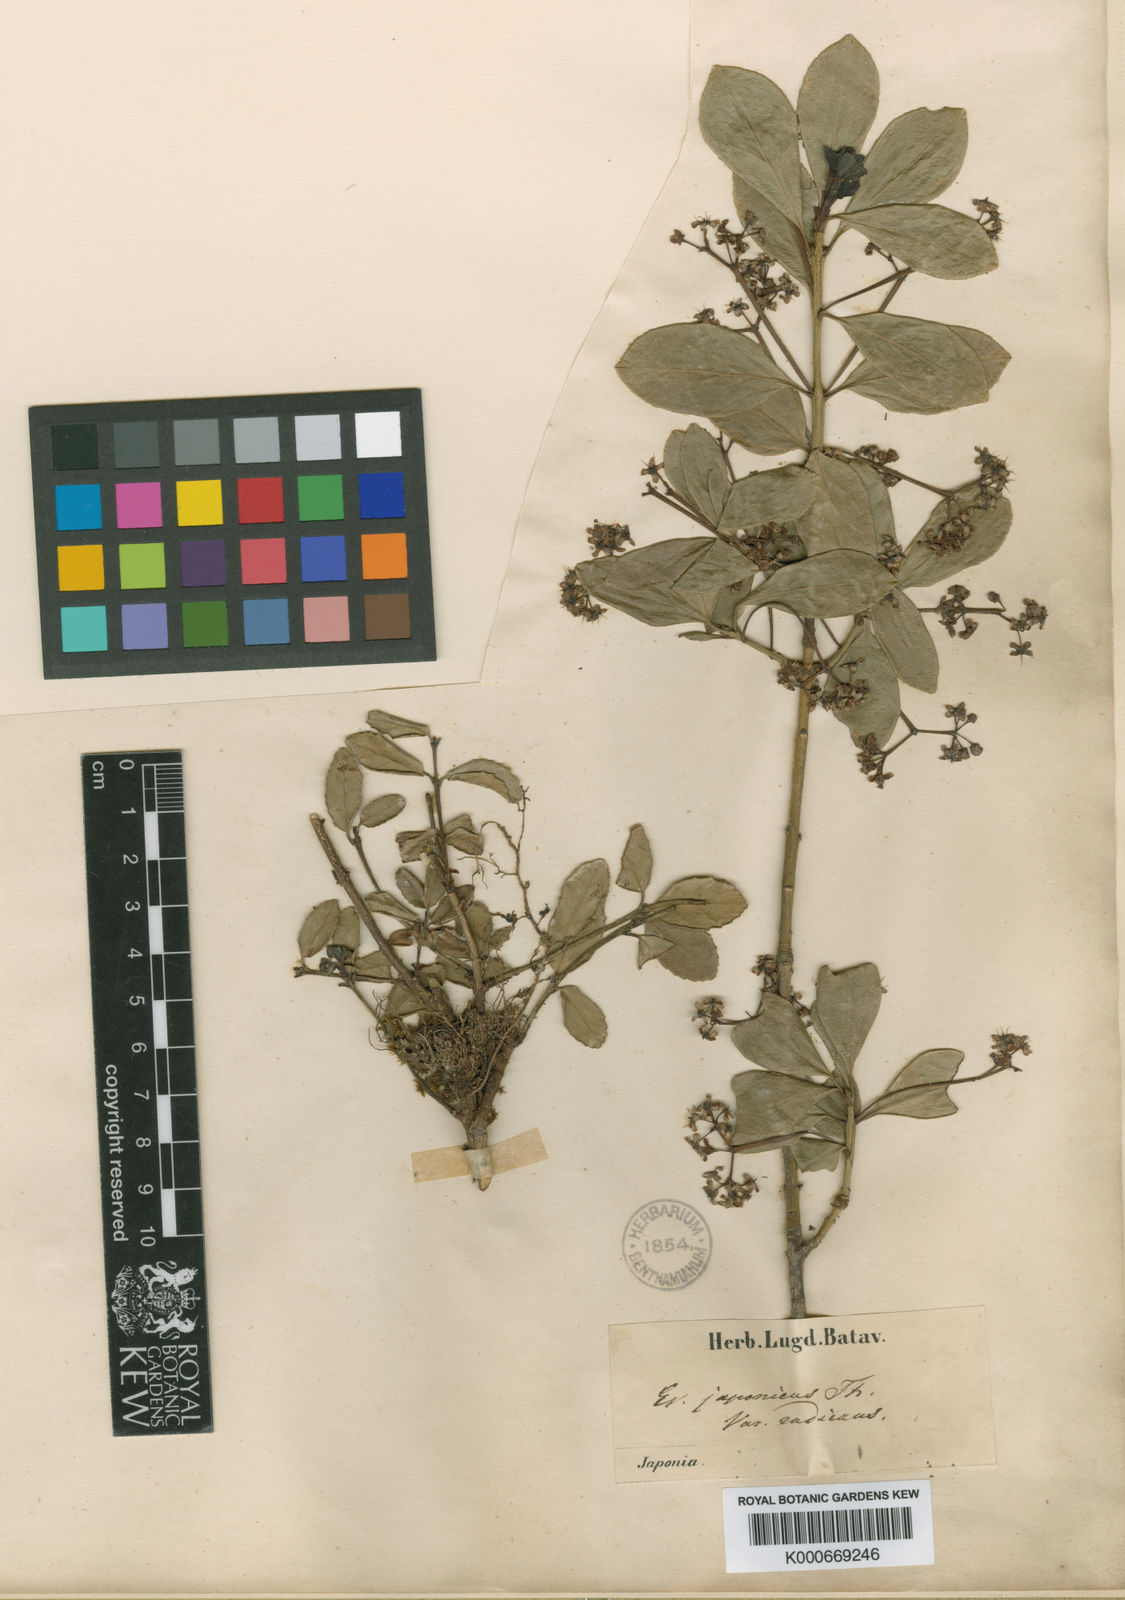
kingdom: Plantae
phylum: Tracheophyta
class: Magnoliopsida
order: Celastrales
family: Celastraceae
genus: Euonymus
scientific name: Euonymus japonicus
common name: Japanese spindletree
